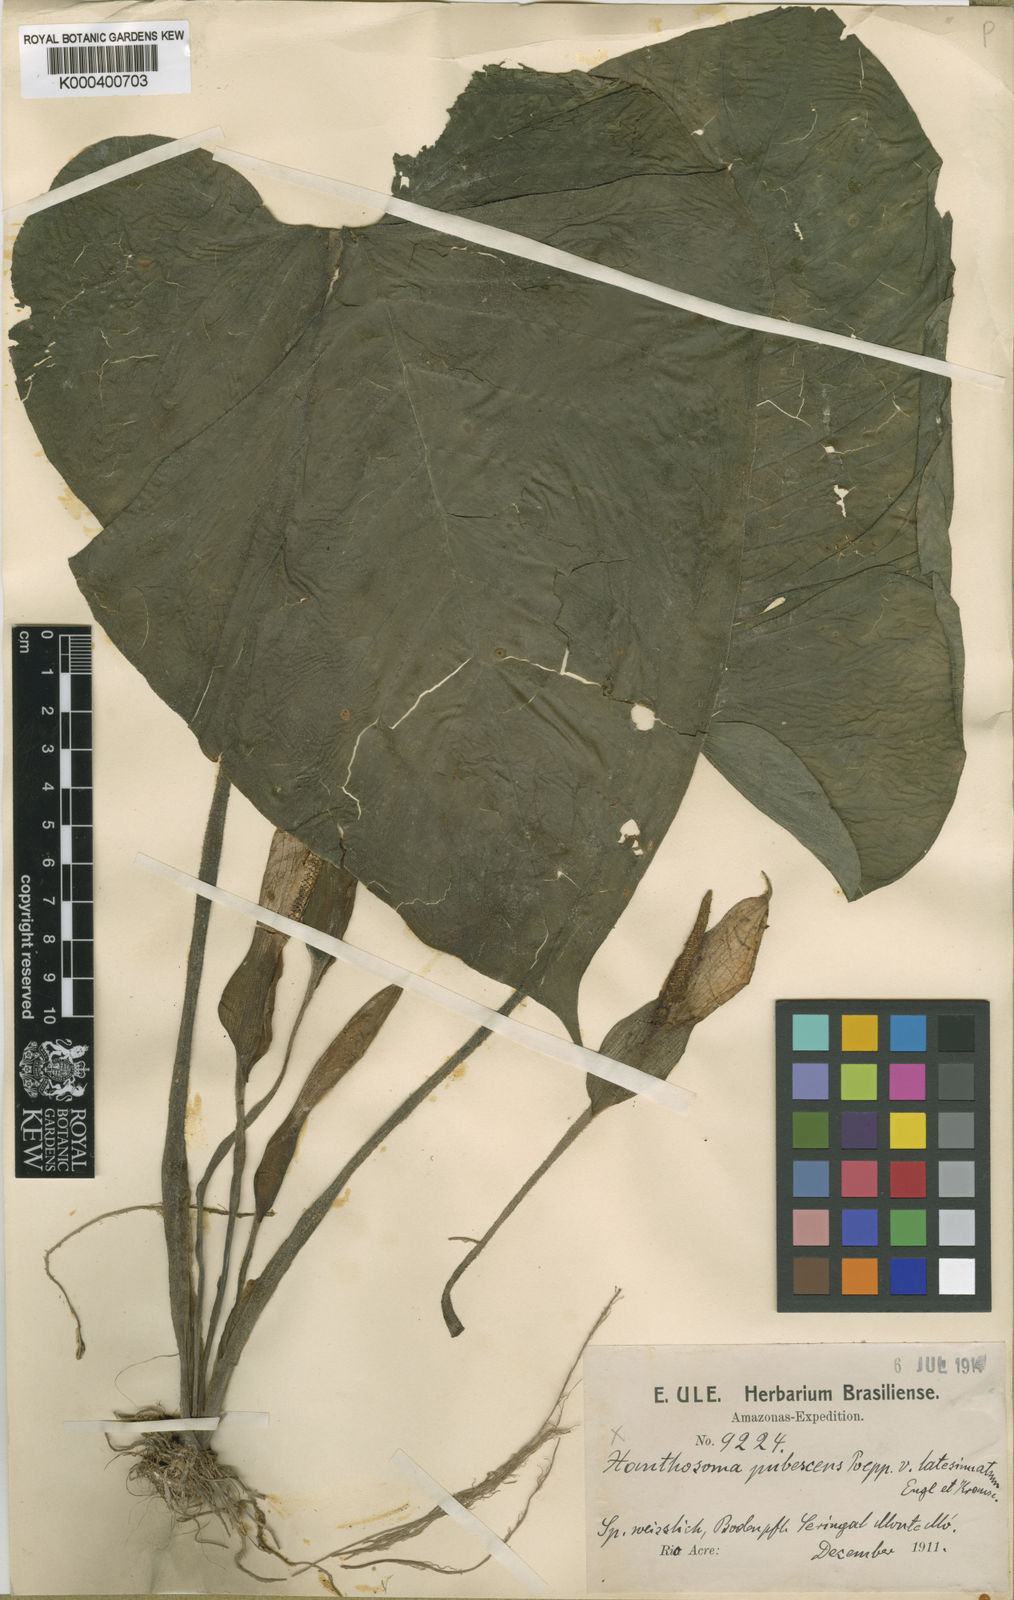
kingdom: Plantae
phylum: Tracheophyta
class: Liliopsida
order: Alismatales
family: Araceae
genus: Xanthosoma
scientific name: Xanthosoma pubescens
